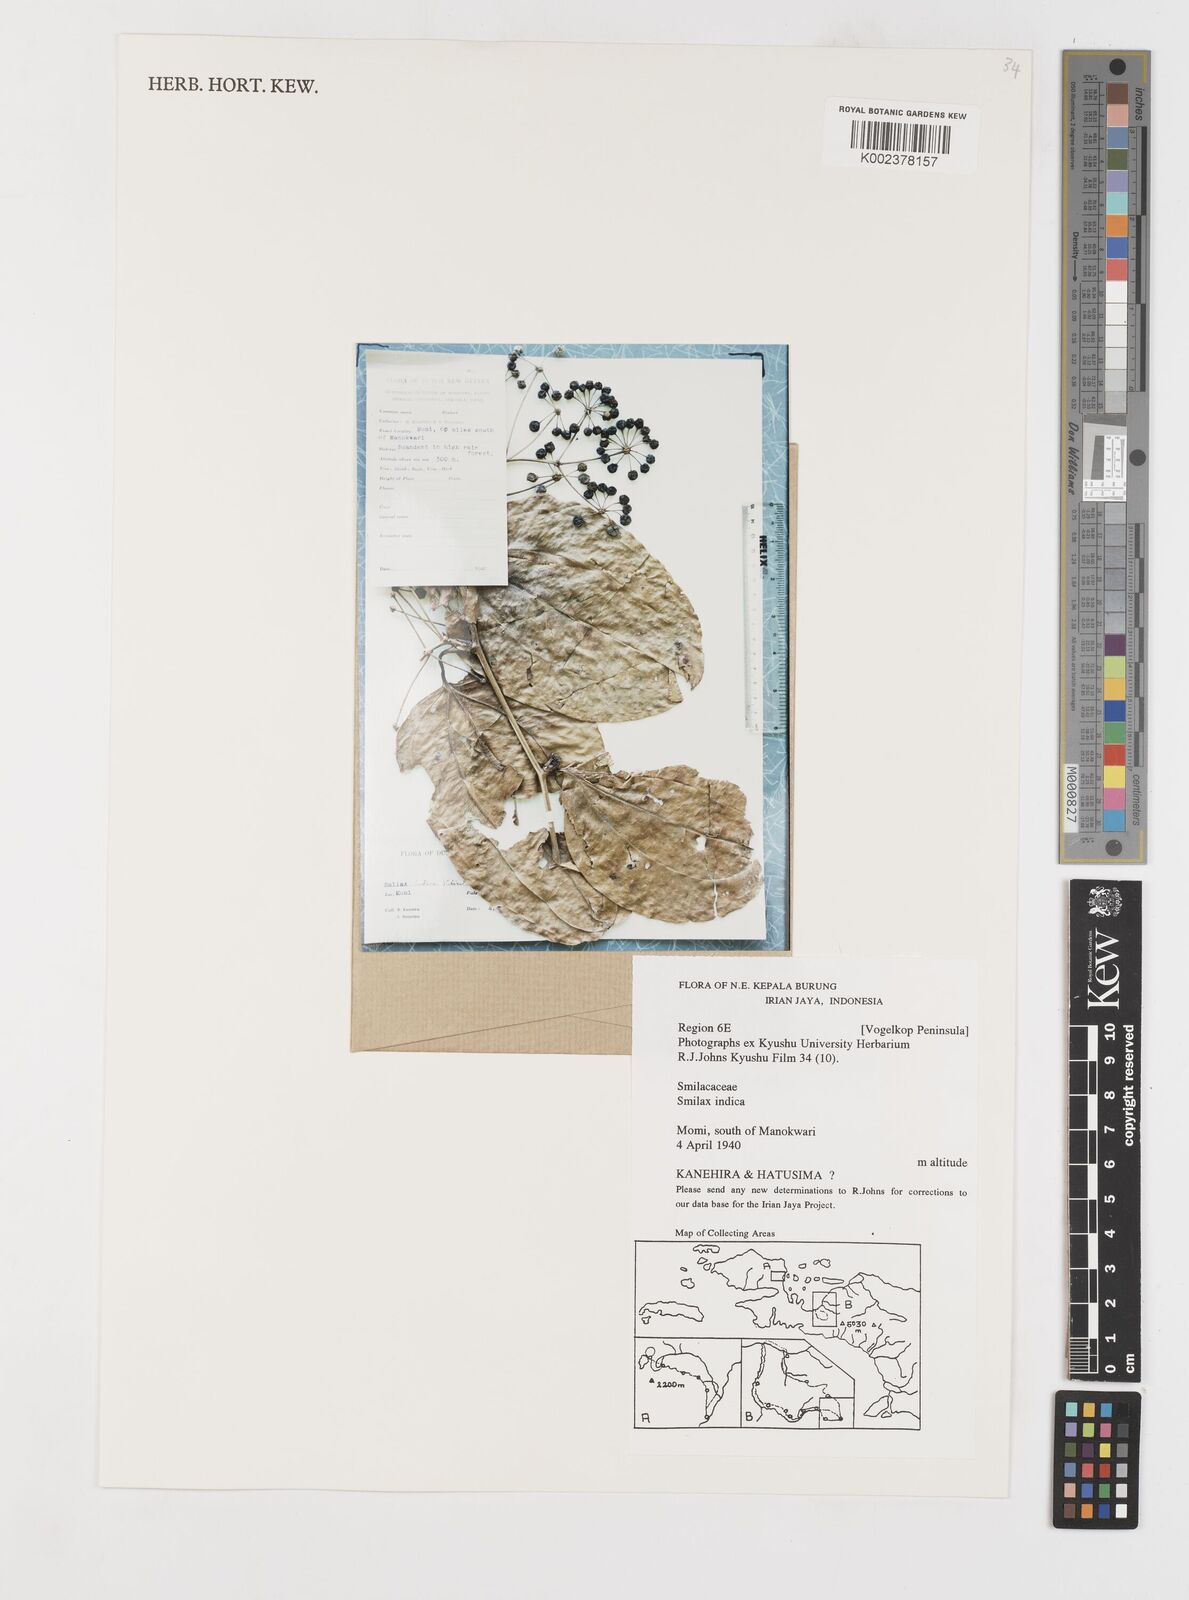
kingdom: Plantae
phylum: Tracheophyta
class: Liliopsida
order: Liliales
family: Smilacaceae
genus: Smilax
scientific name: Smilax zeylanica
